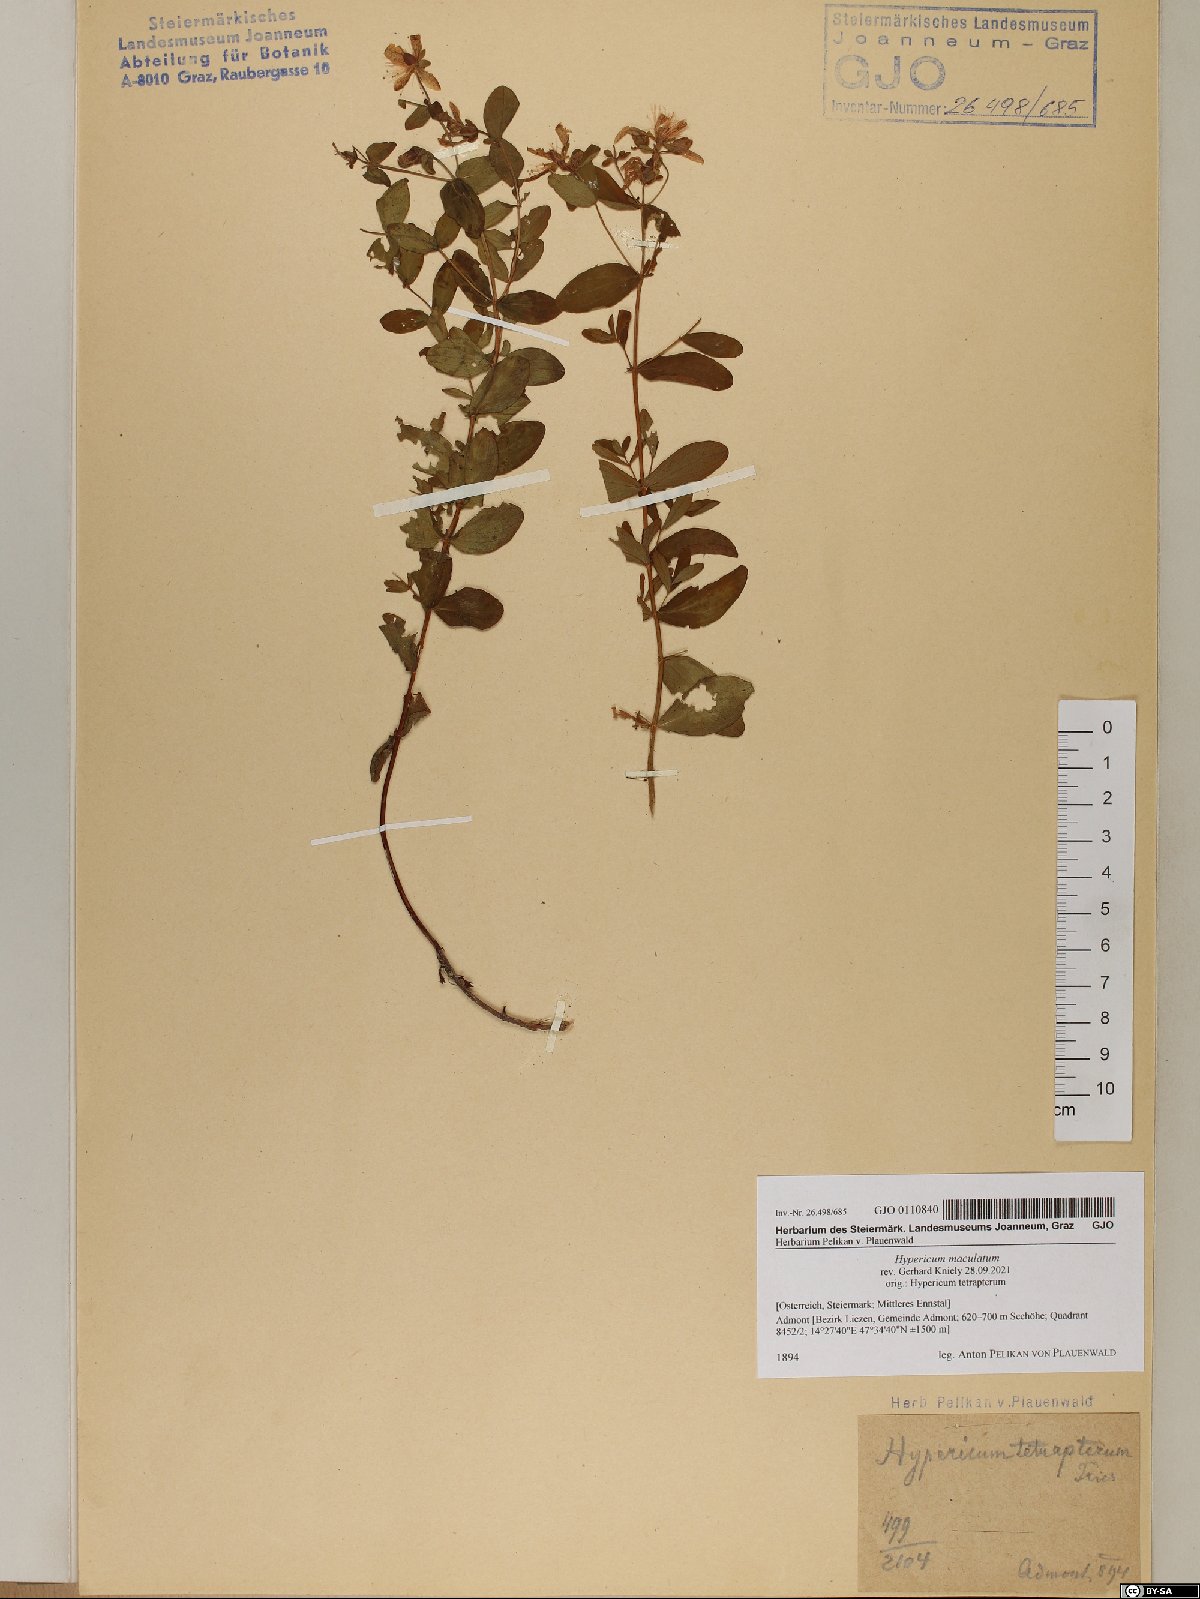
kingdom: Plantae
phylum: Tracheophyta
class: Magnoliopsida
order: Malpighiales
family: Hypericaceae
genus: Hypericum
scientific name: Hypericum maculatum
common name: Imperforate st. john's-wort
